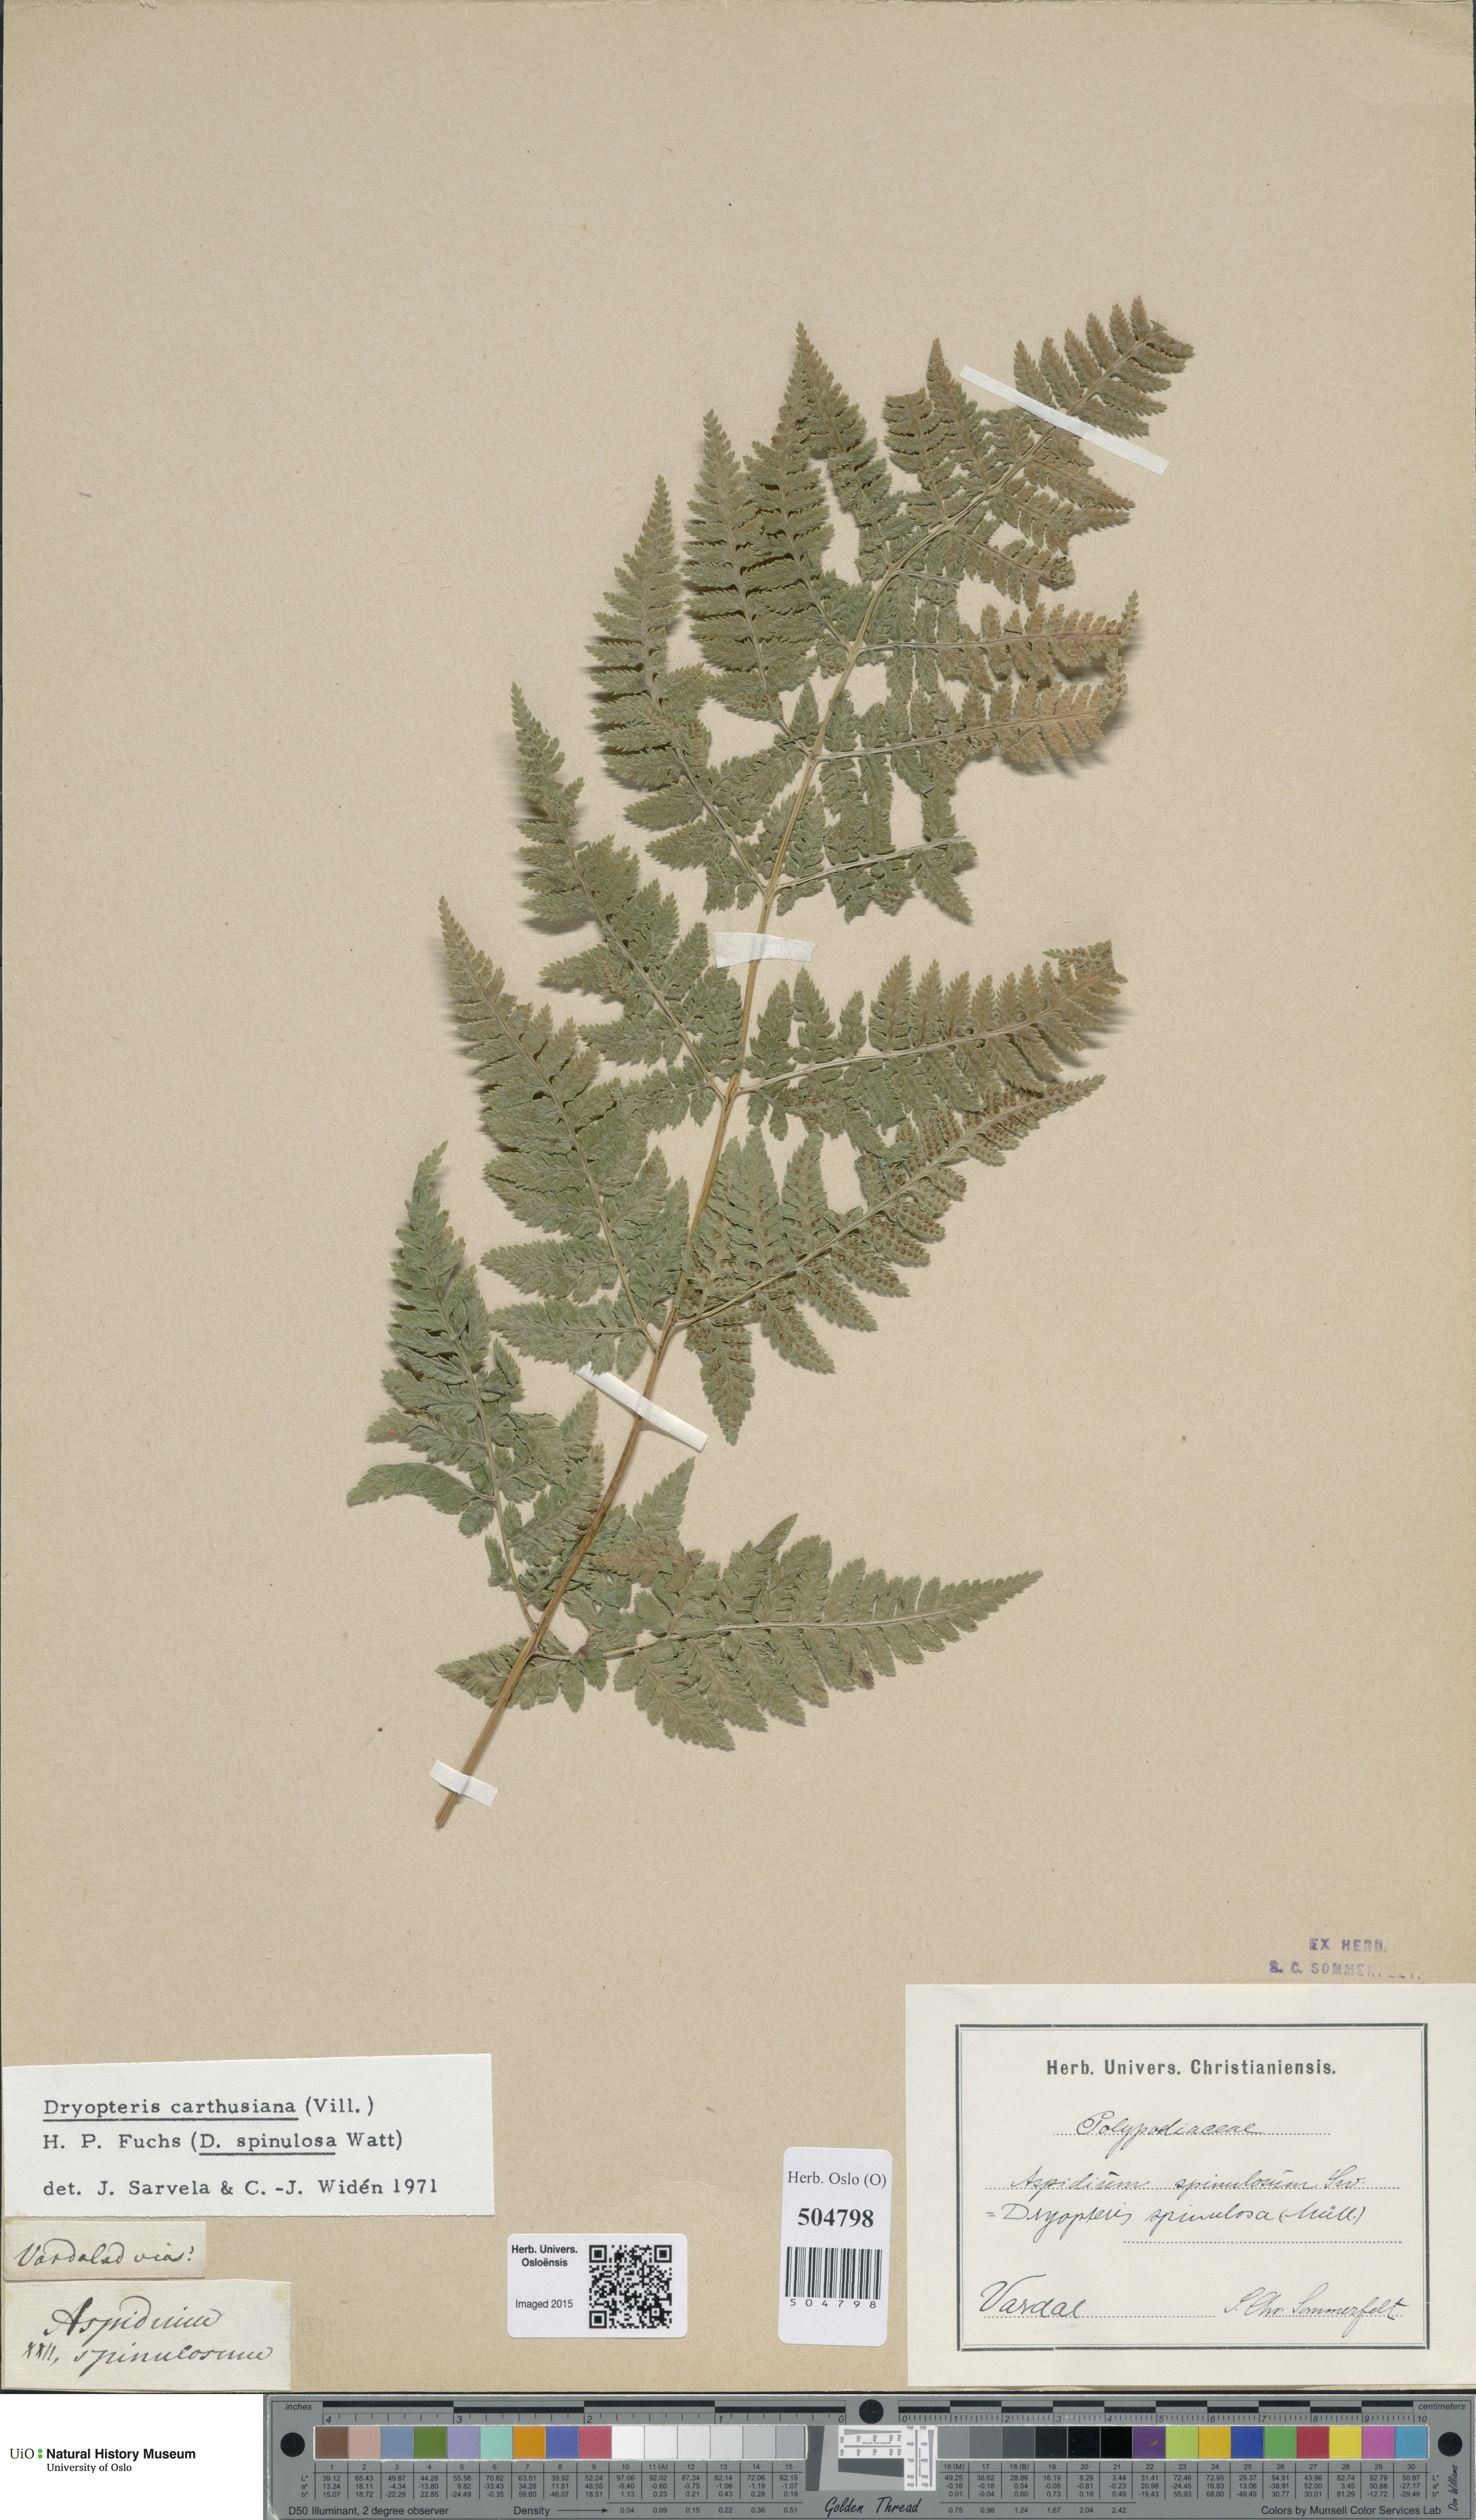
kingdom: Plantae
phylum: Tracheophyta
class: Polypodiopsida
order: Polypodiales
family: Dryopteridaceae
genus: Dryopteris
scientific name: Dryopteris carthusiana
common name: Narrow buckler-fern
